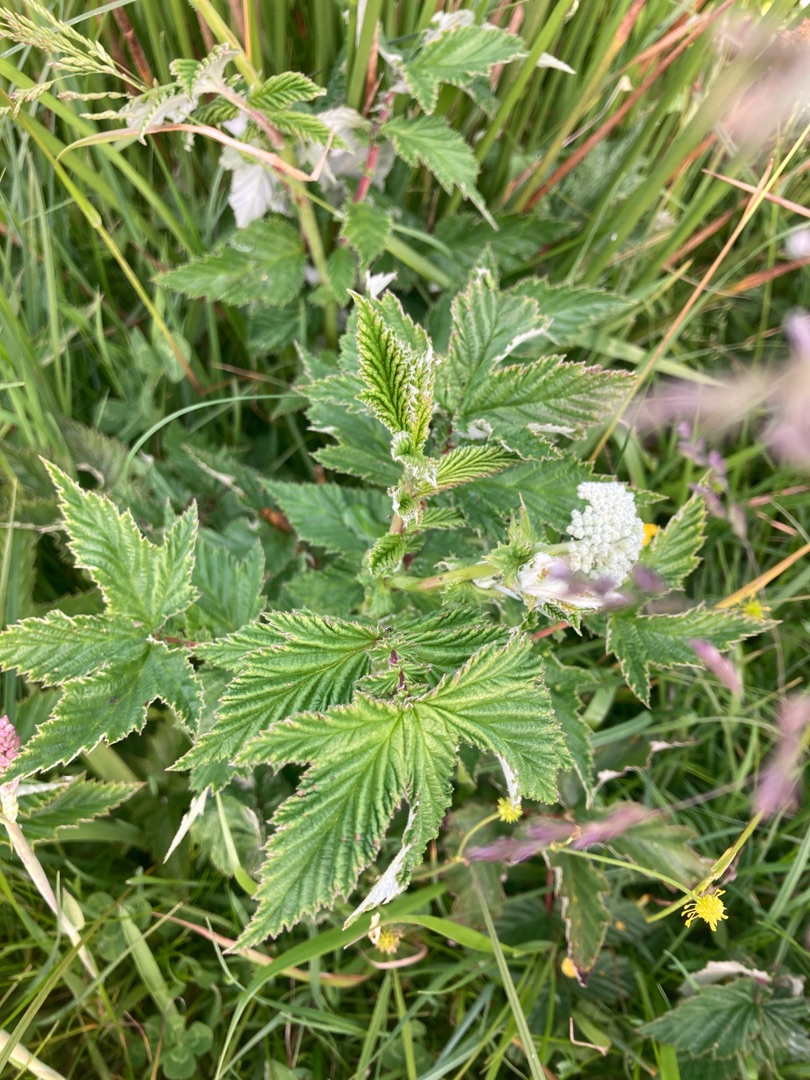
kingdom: Plantae
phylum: Tracheophyta
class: Magnoliopsida
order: Rosales
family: Rosaceae
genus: Filipendula
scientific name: Filipendula ulmaria
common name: Almindelig mjødurt
